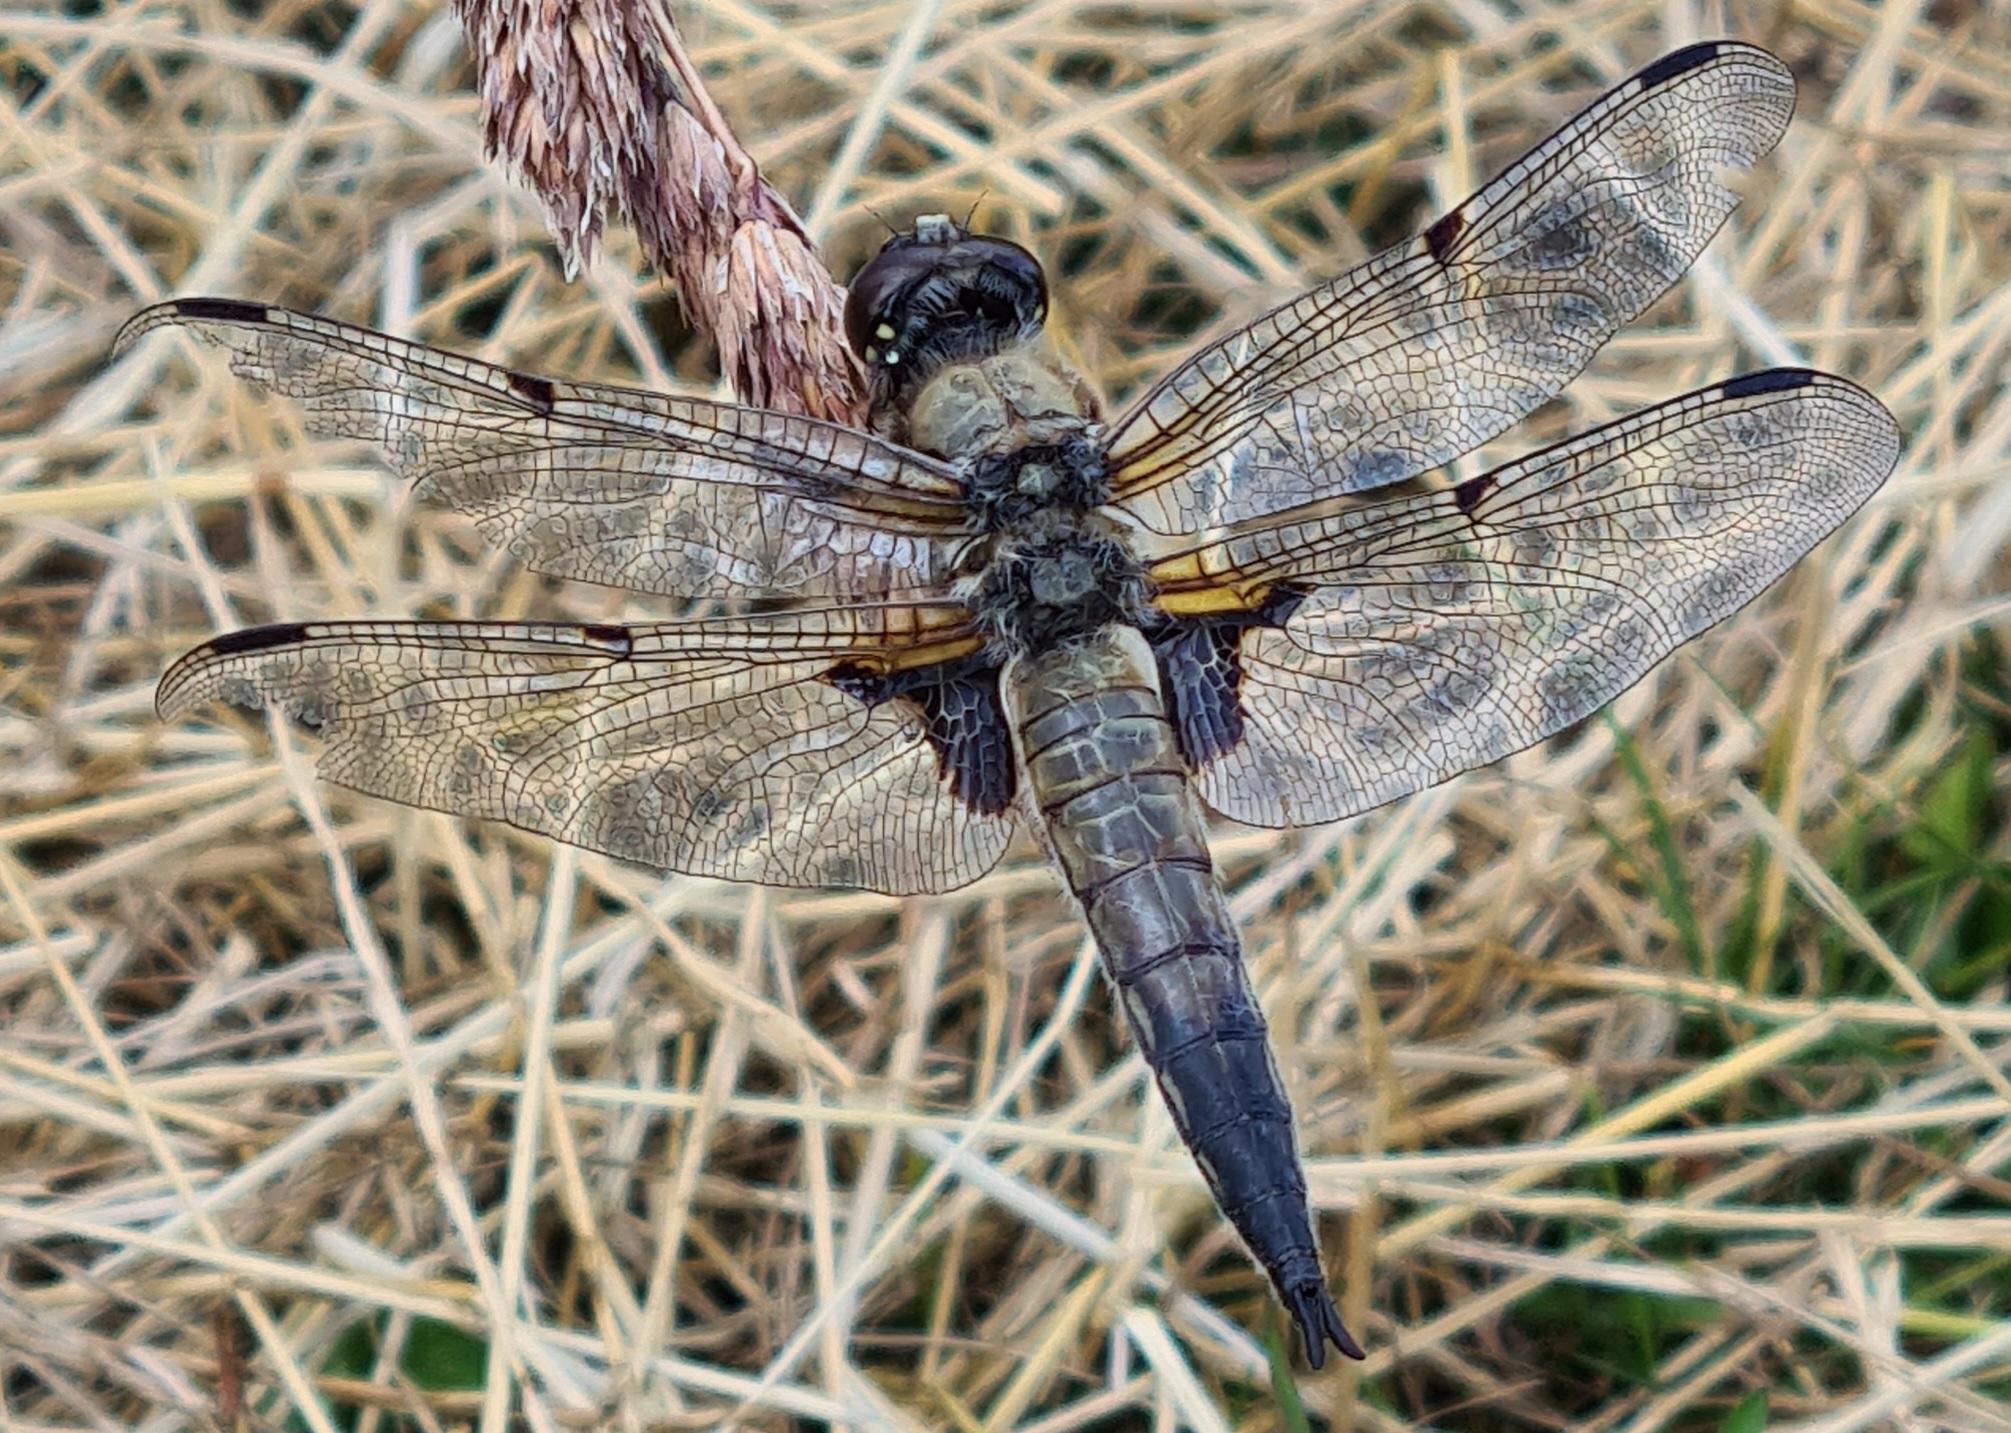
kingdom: Animalia
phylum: Arthropoda
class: Insecta
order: Odonata
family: Libellulidae
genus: Libellula
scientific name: Libellula quadrimaculata
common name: Fireplettet libel
